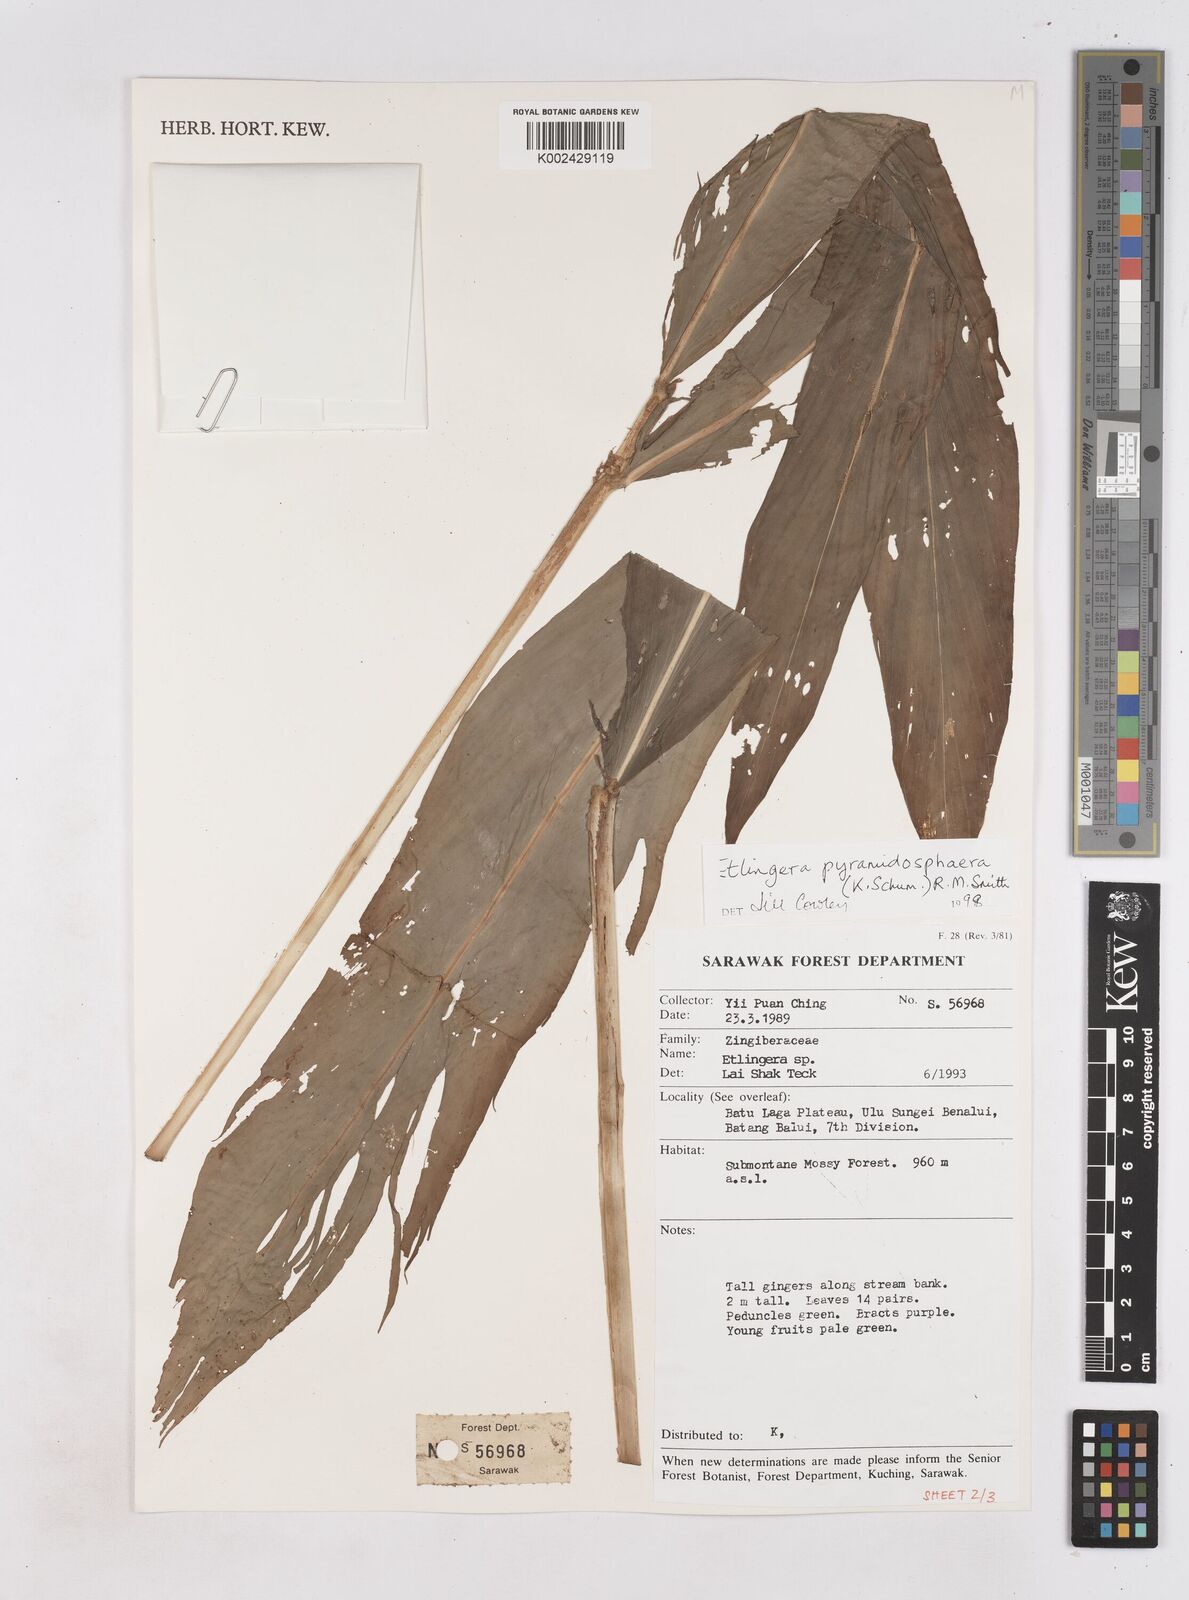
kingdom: Plantae
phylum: Tracheophyta
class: Liliopsida
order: Zingiberales
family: Zingiberaceae
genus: Zingiber
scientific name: Zingiber kelabitianum
